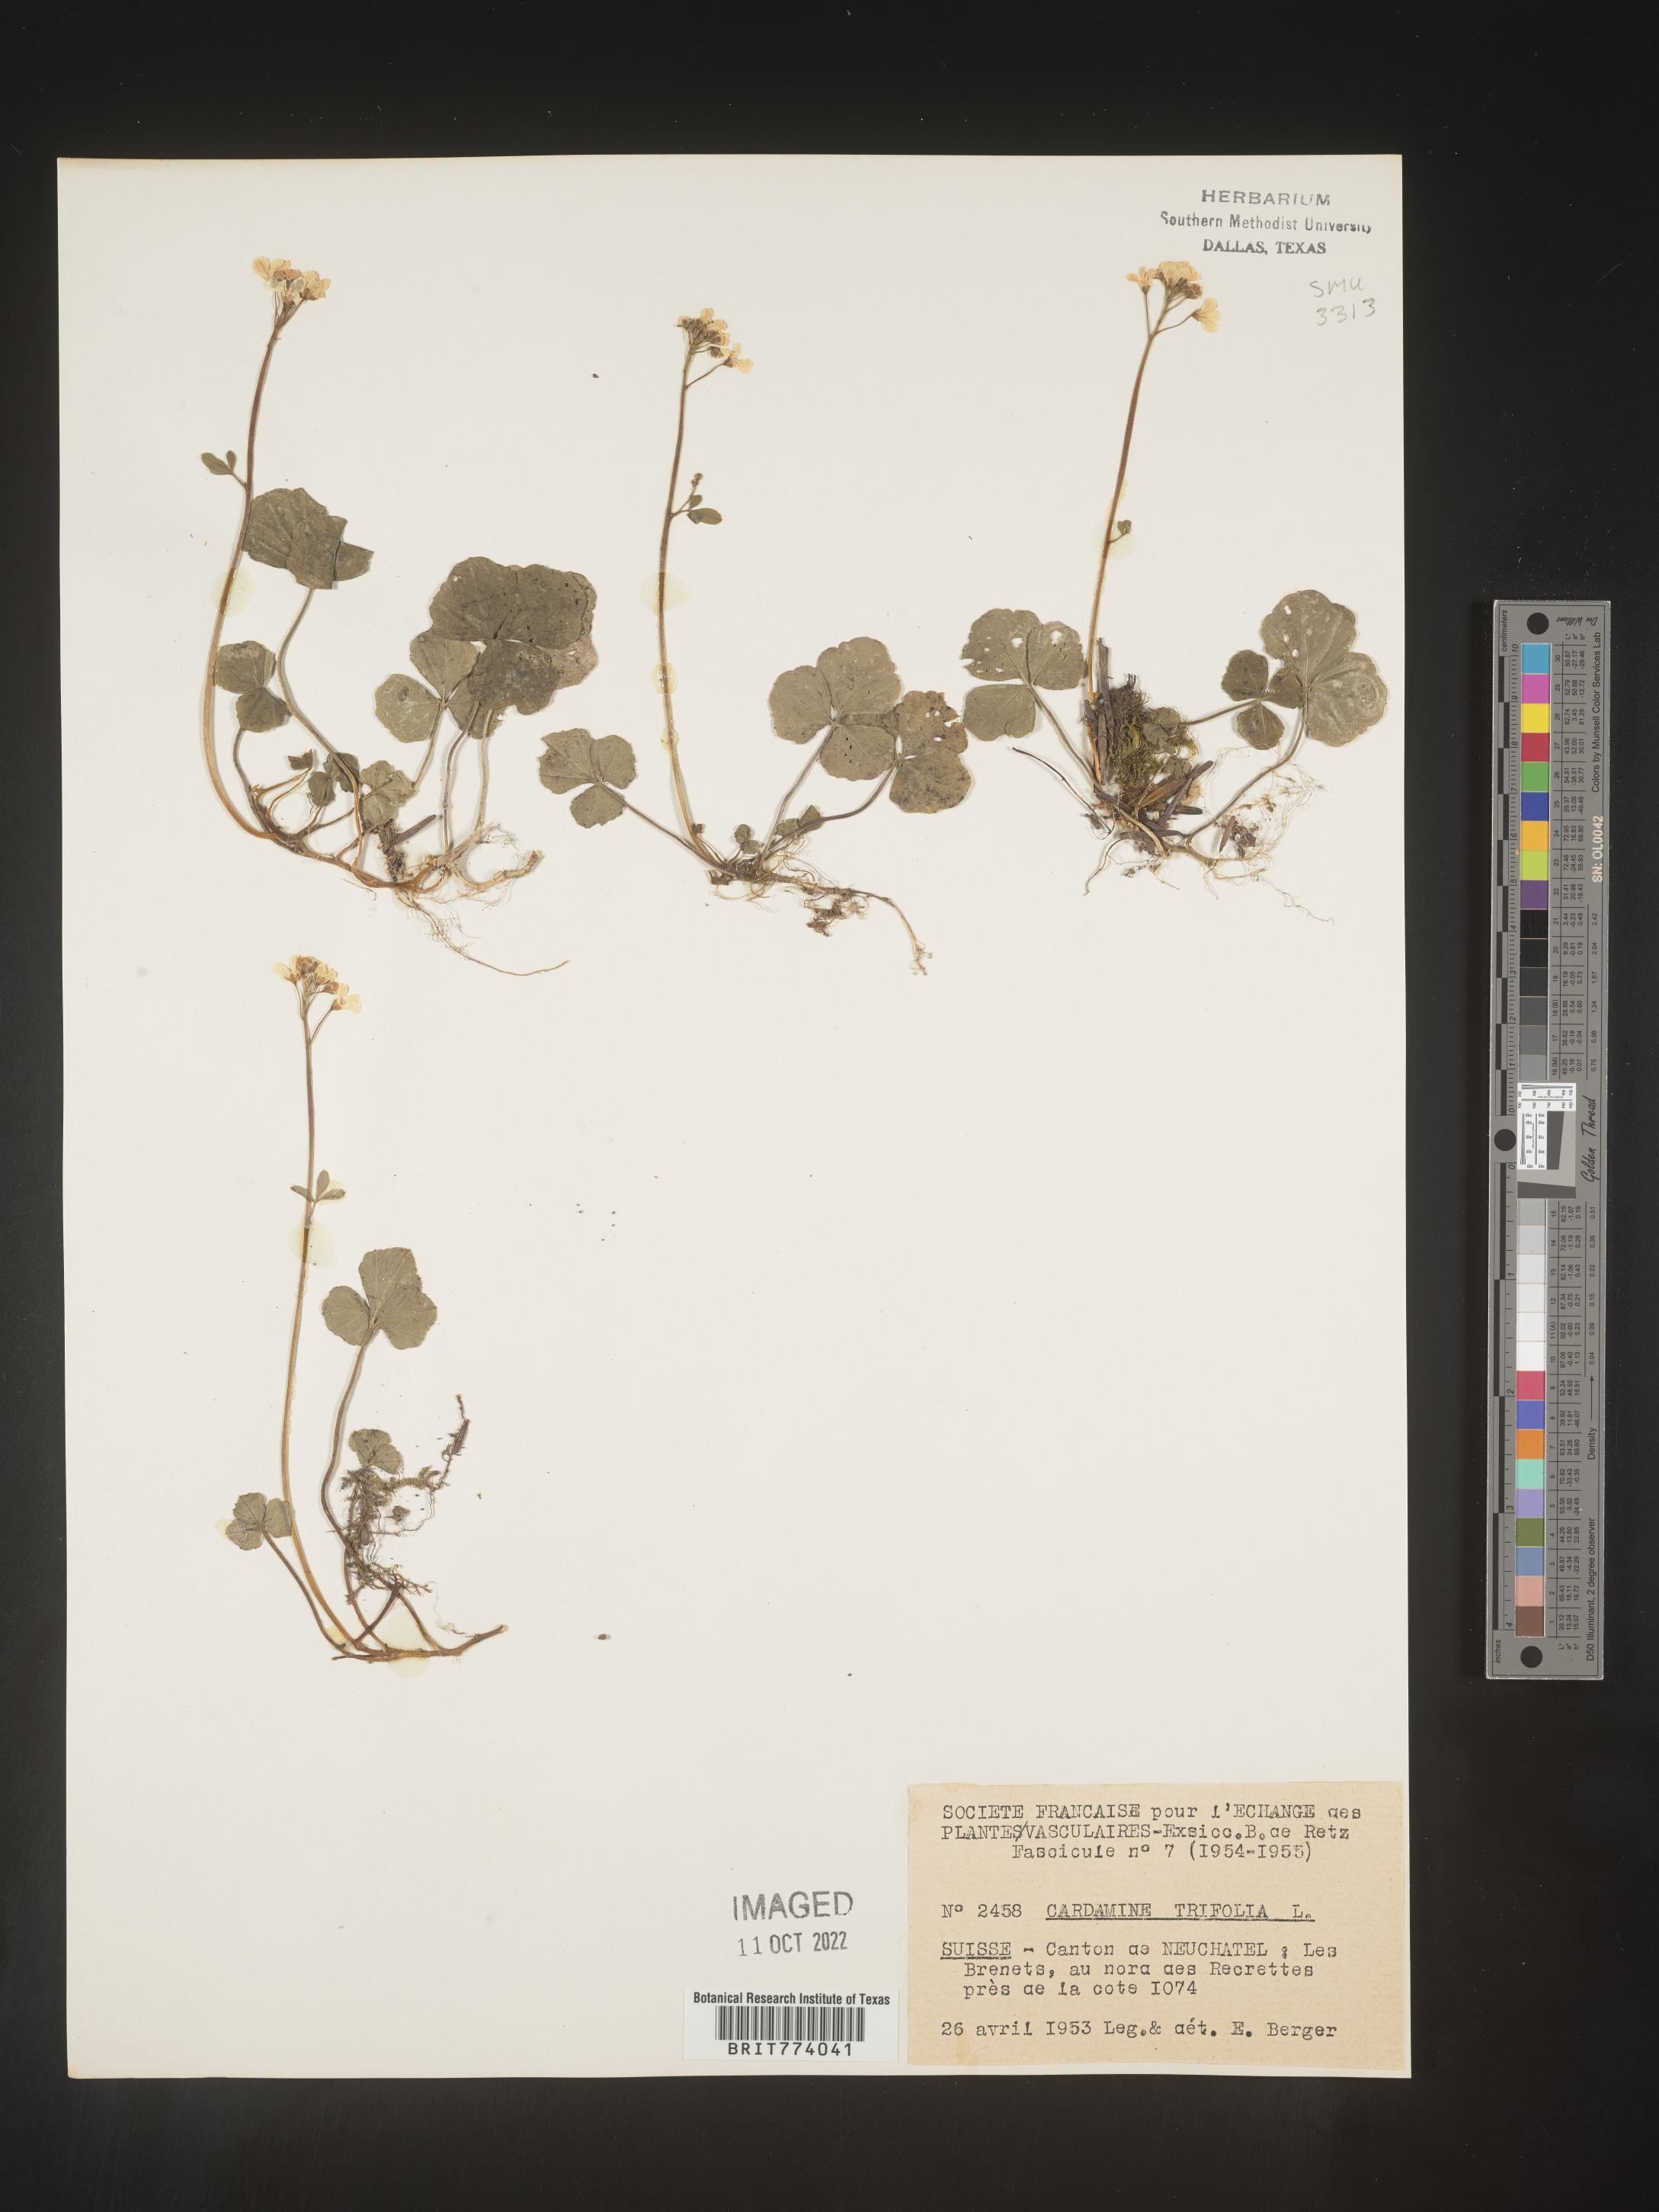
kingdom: Plantae
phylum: Tracheophyta
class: Magnoliopsida
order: Brassicales
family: Brassicaceae
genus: Cardamine
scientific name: Cardamine
